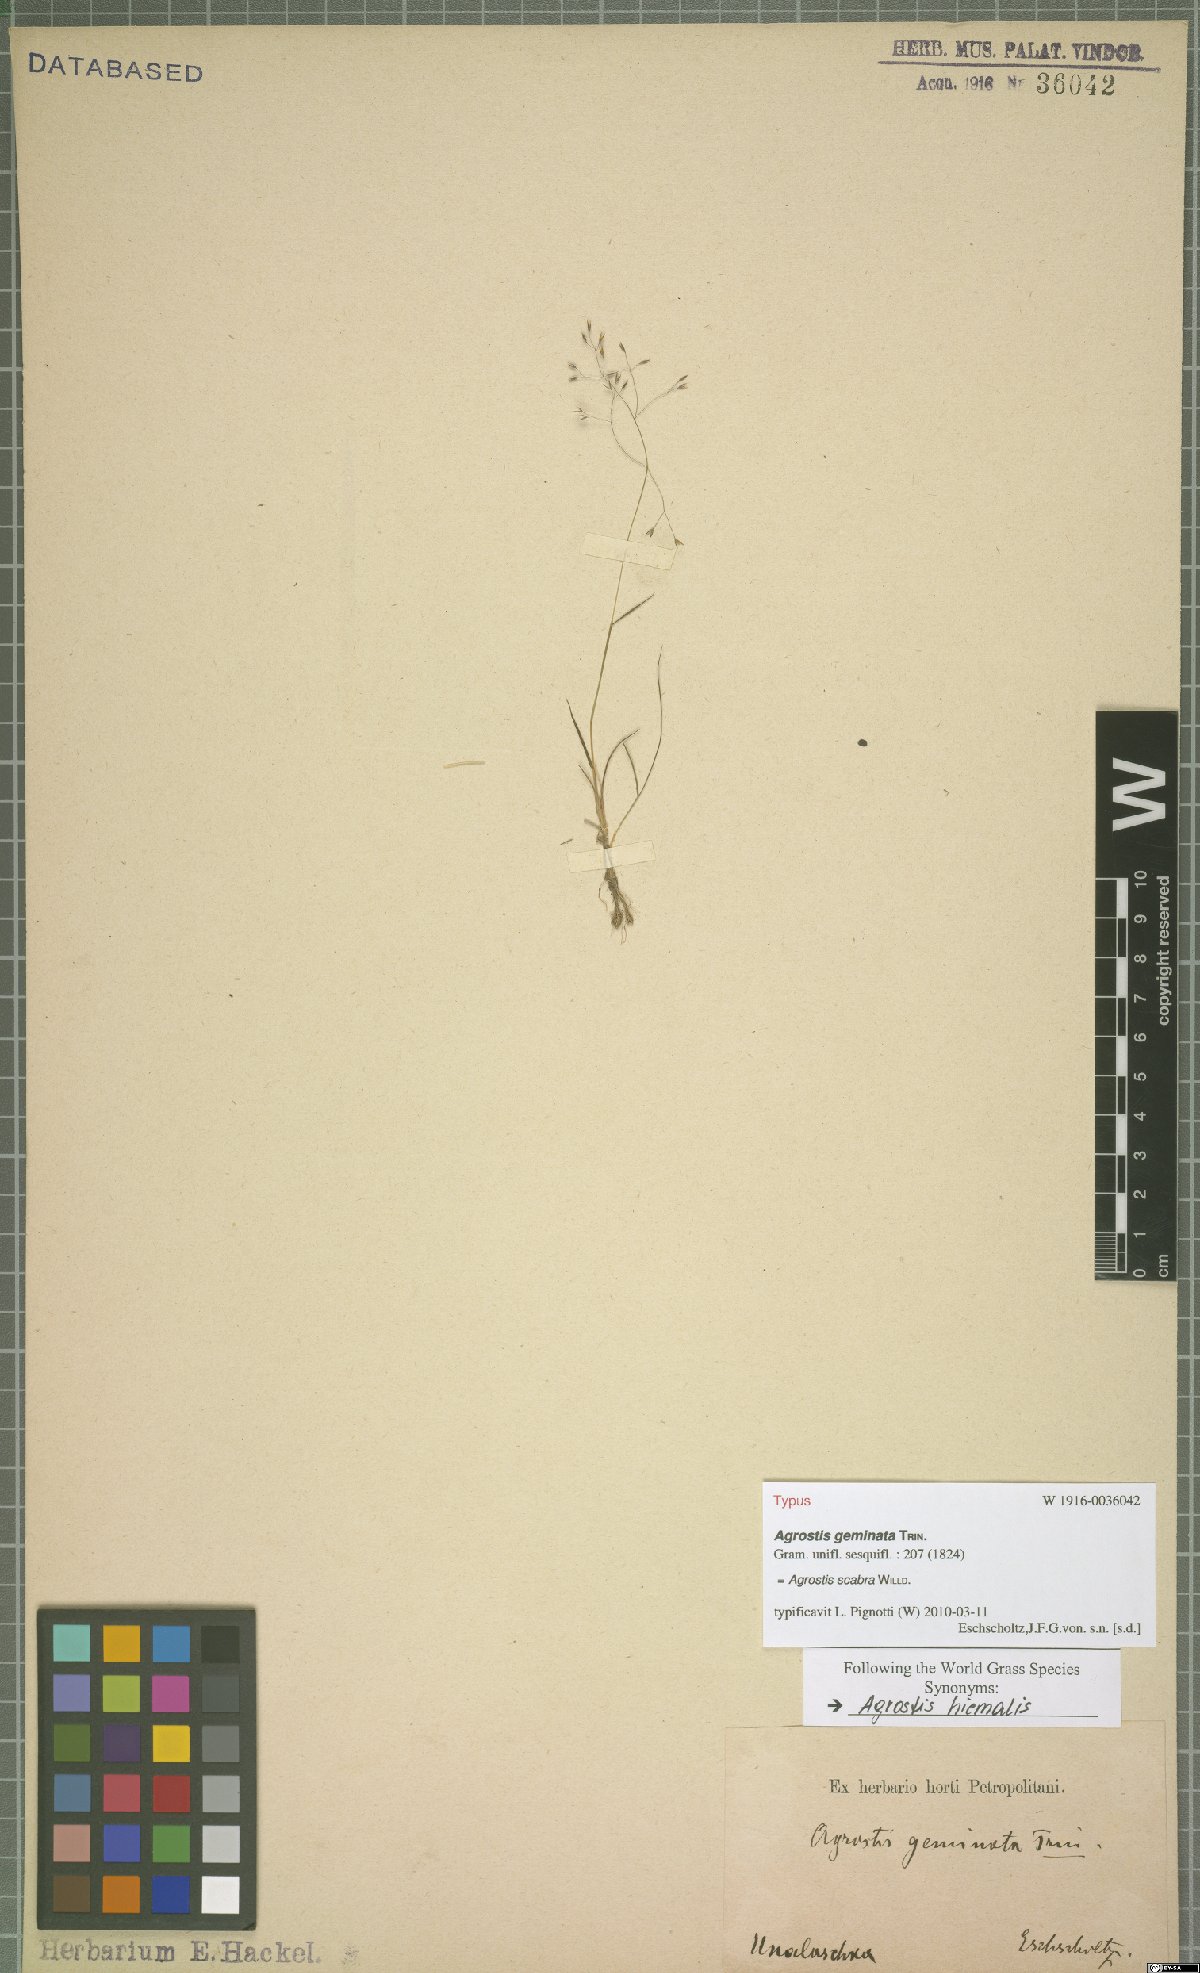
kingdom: Plantae
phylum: Tracheophyta
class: Liliopsida
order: Poales
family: Poaceae
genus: Agrostis
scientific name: Agrostis scabra
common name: Rough bent
